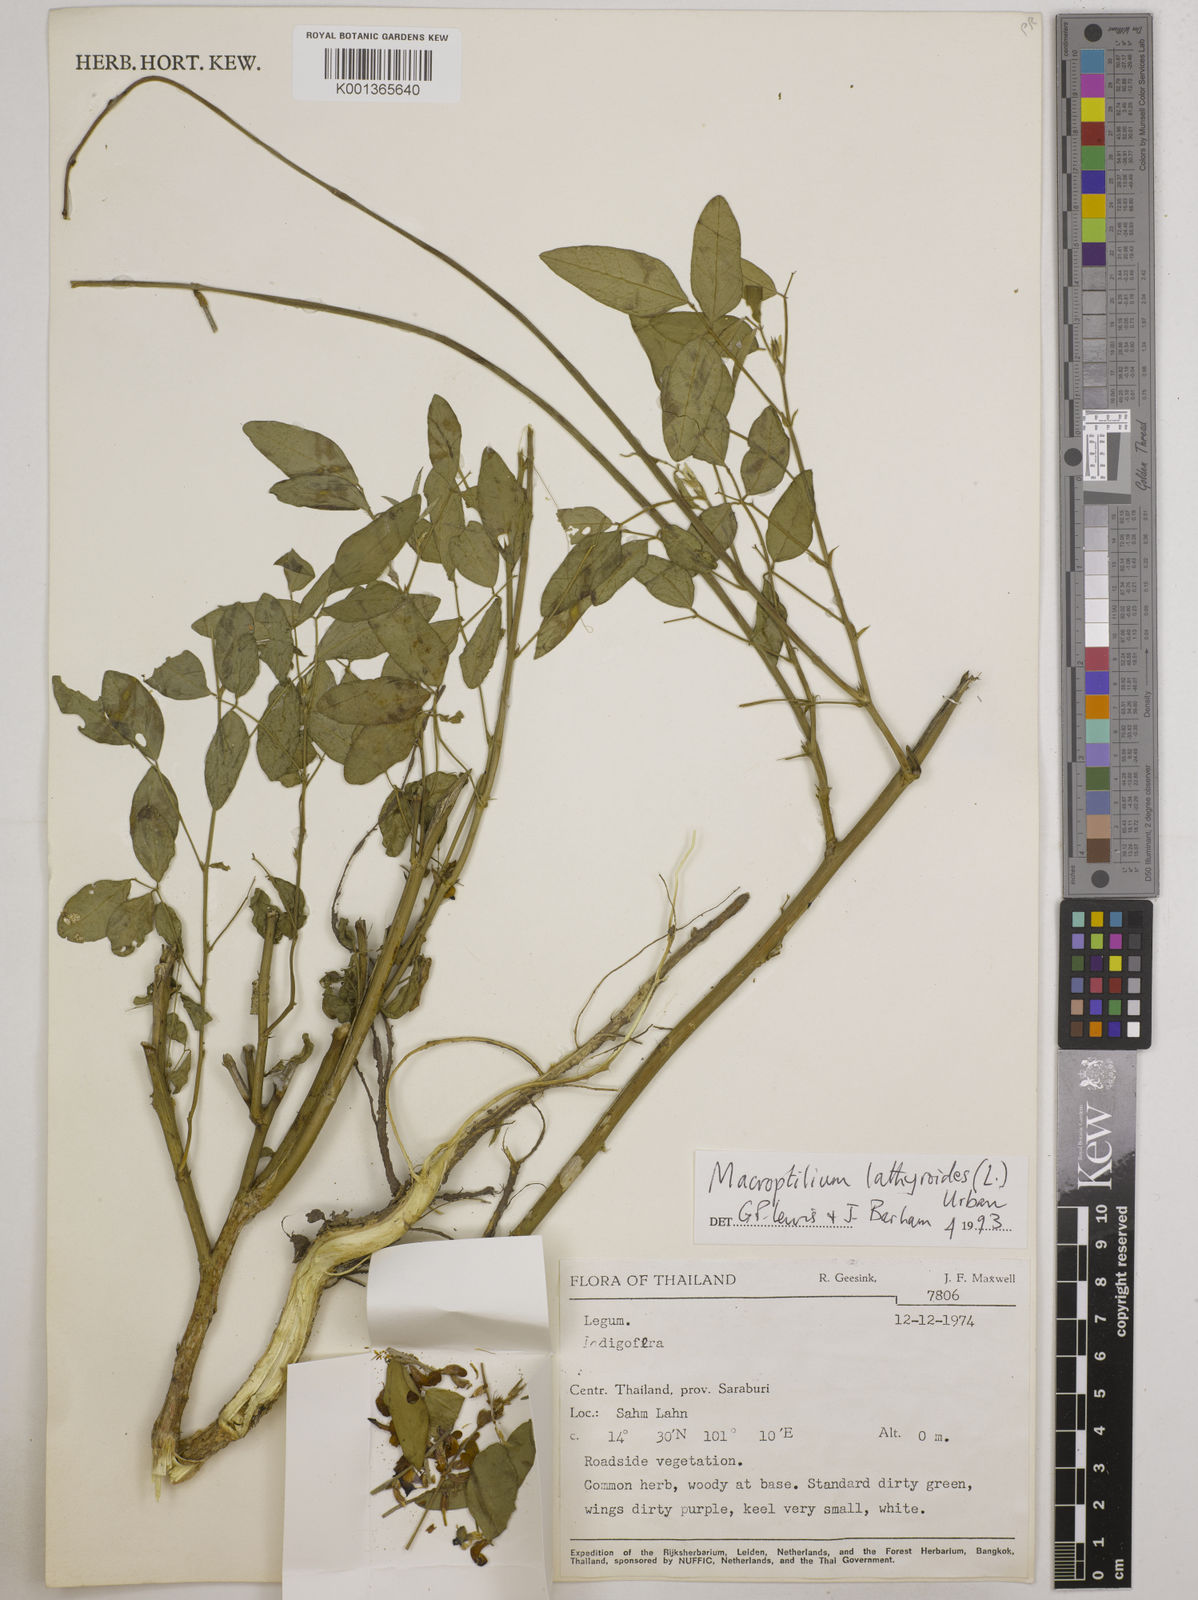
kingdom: Plantae
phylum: Tracheophyta
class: Magnoliopsida
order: Fabales
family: Fabaceae
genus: Macroptilium
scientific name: Macroptilium lathyroides
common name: Wild bushbean
